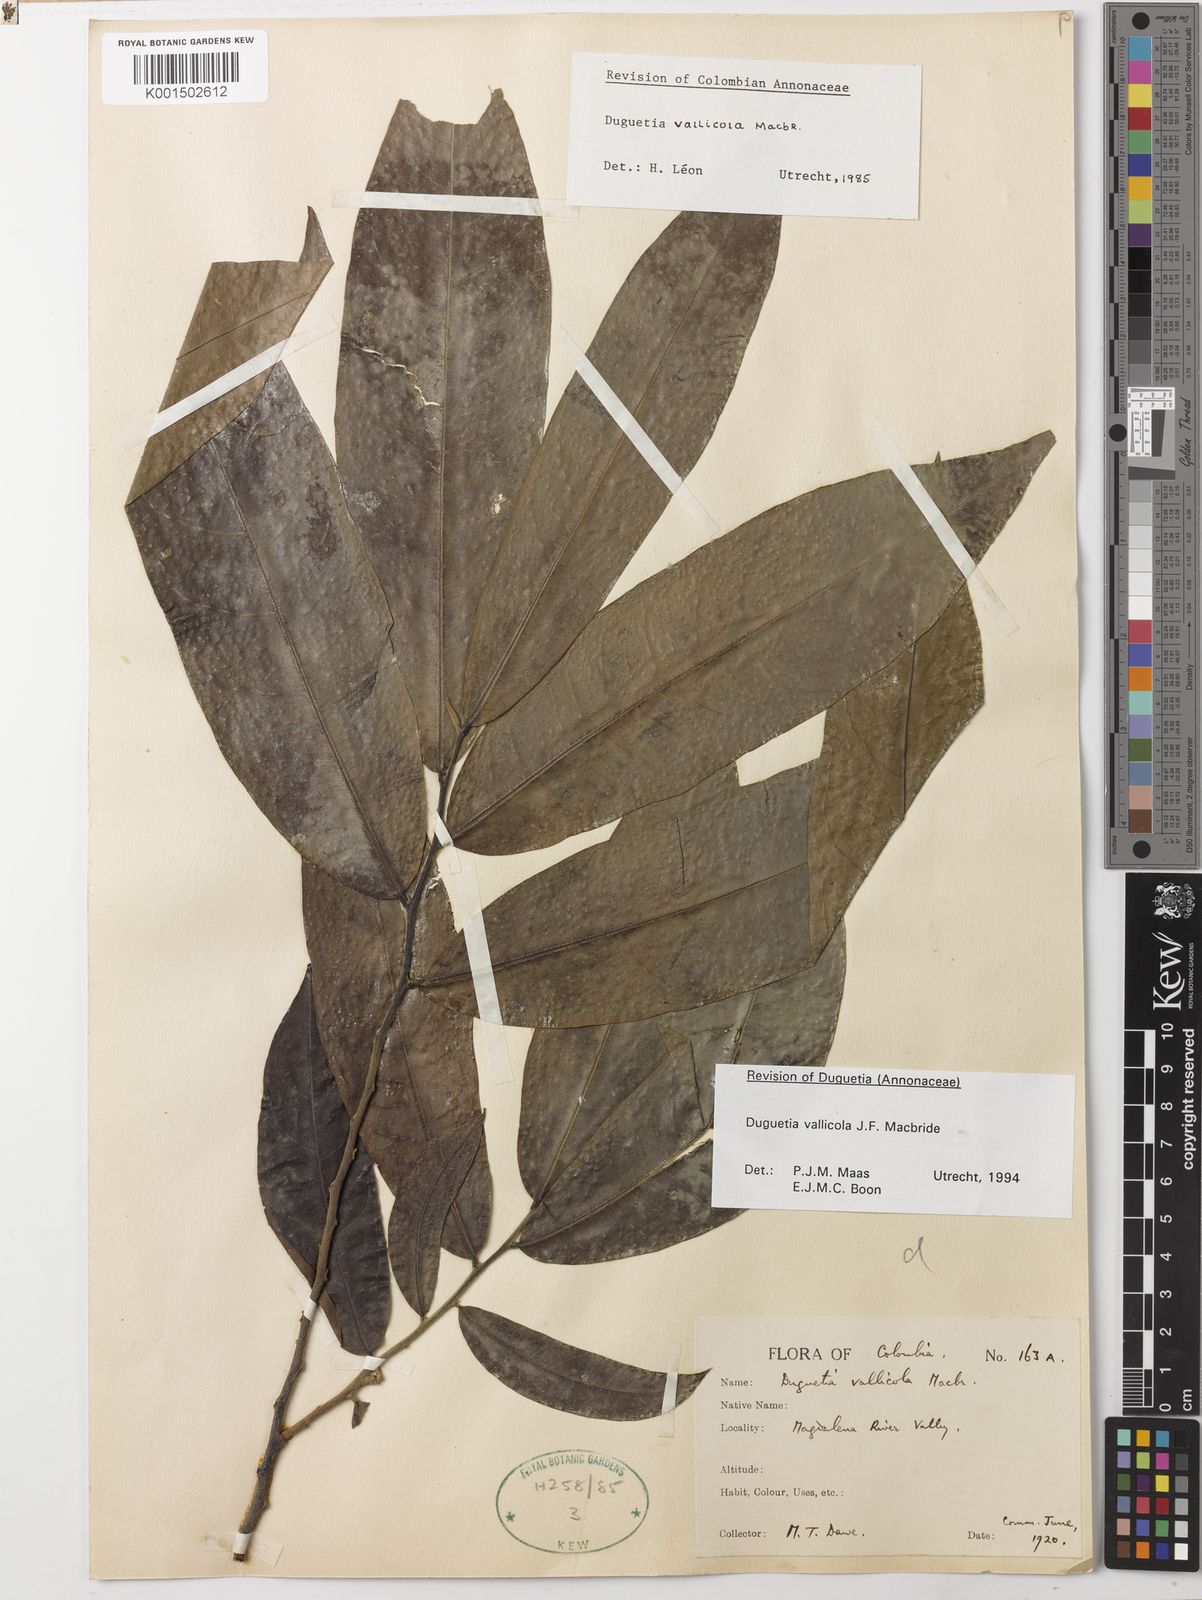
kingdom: Plantae
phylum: Tracheophyta
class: Magnoliopsida
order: Magnoliales
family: Annonaceae
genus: Duguetia
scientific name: Duguetia vallicola
